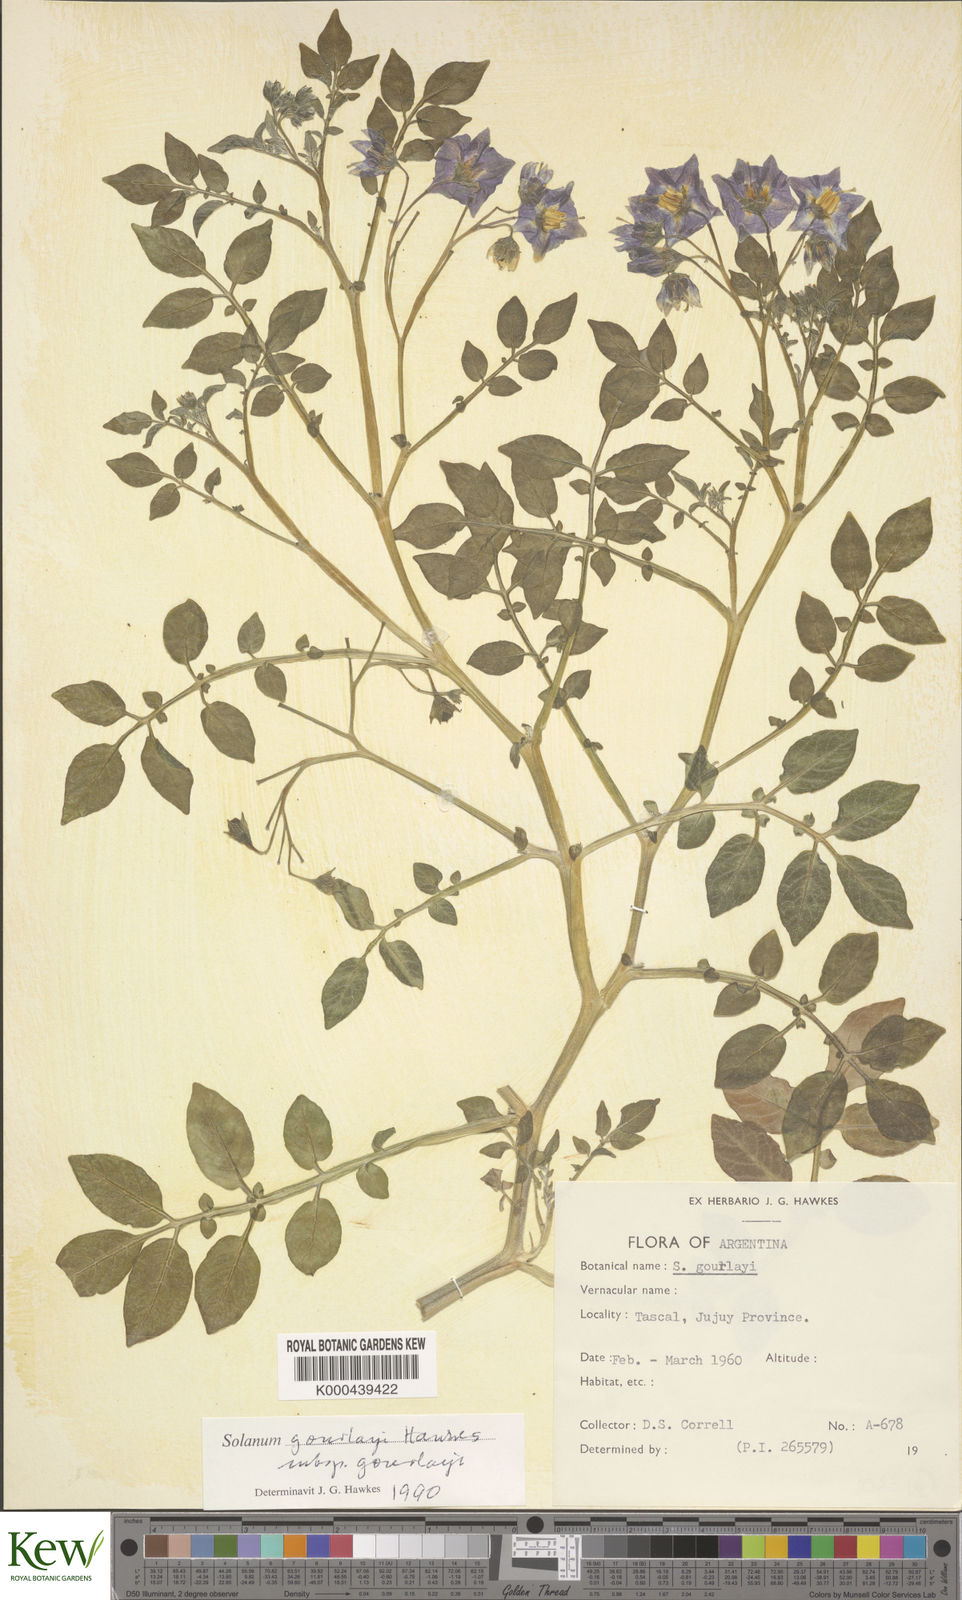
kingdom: Plantae
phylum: Tracheophyta
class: Magnoliopsida
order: Solanales
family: Solanaceae
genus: Solanum
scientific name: Solanum brevicaule
